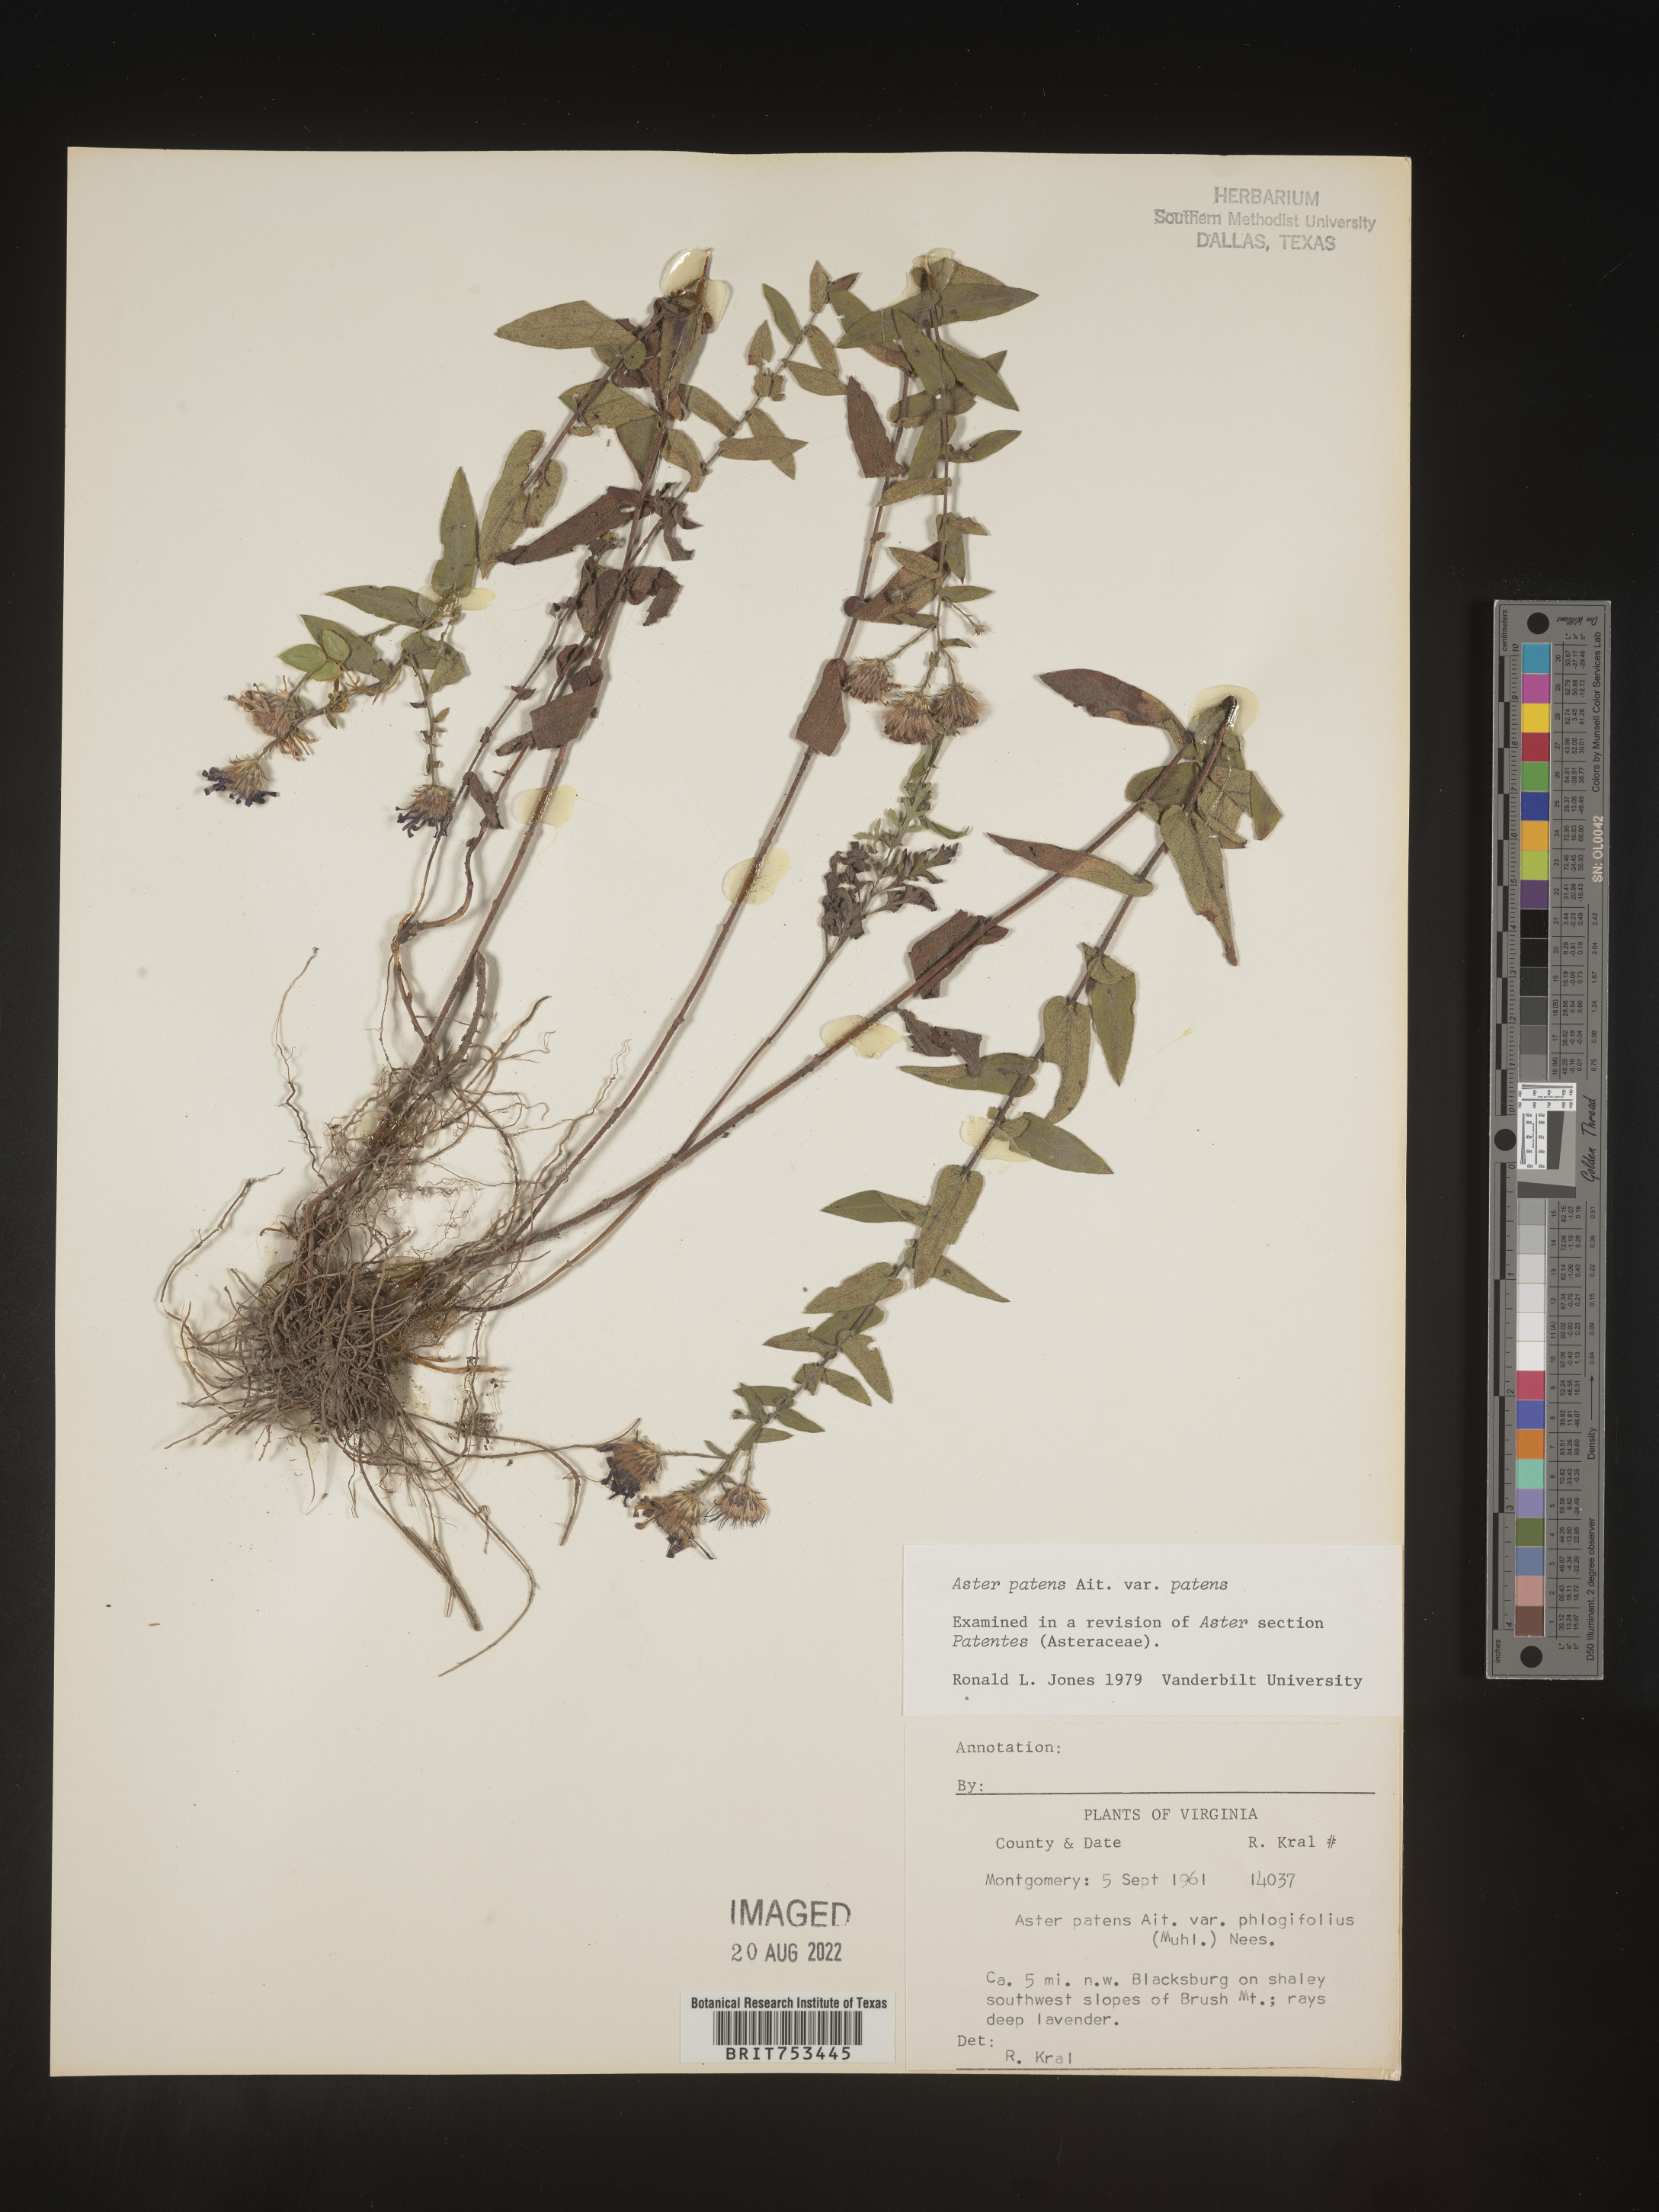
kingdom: Plantae
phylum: Tracheophyta
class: Magnoliopsida
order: Asterales
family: Asteraceae
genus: Symphyotrichum
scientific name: Symphyotrichum patens
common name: Late purple aster
